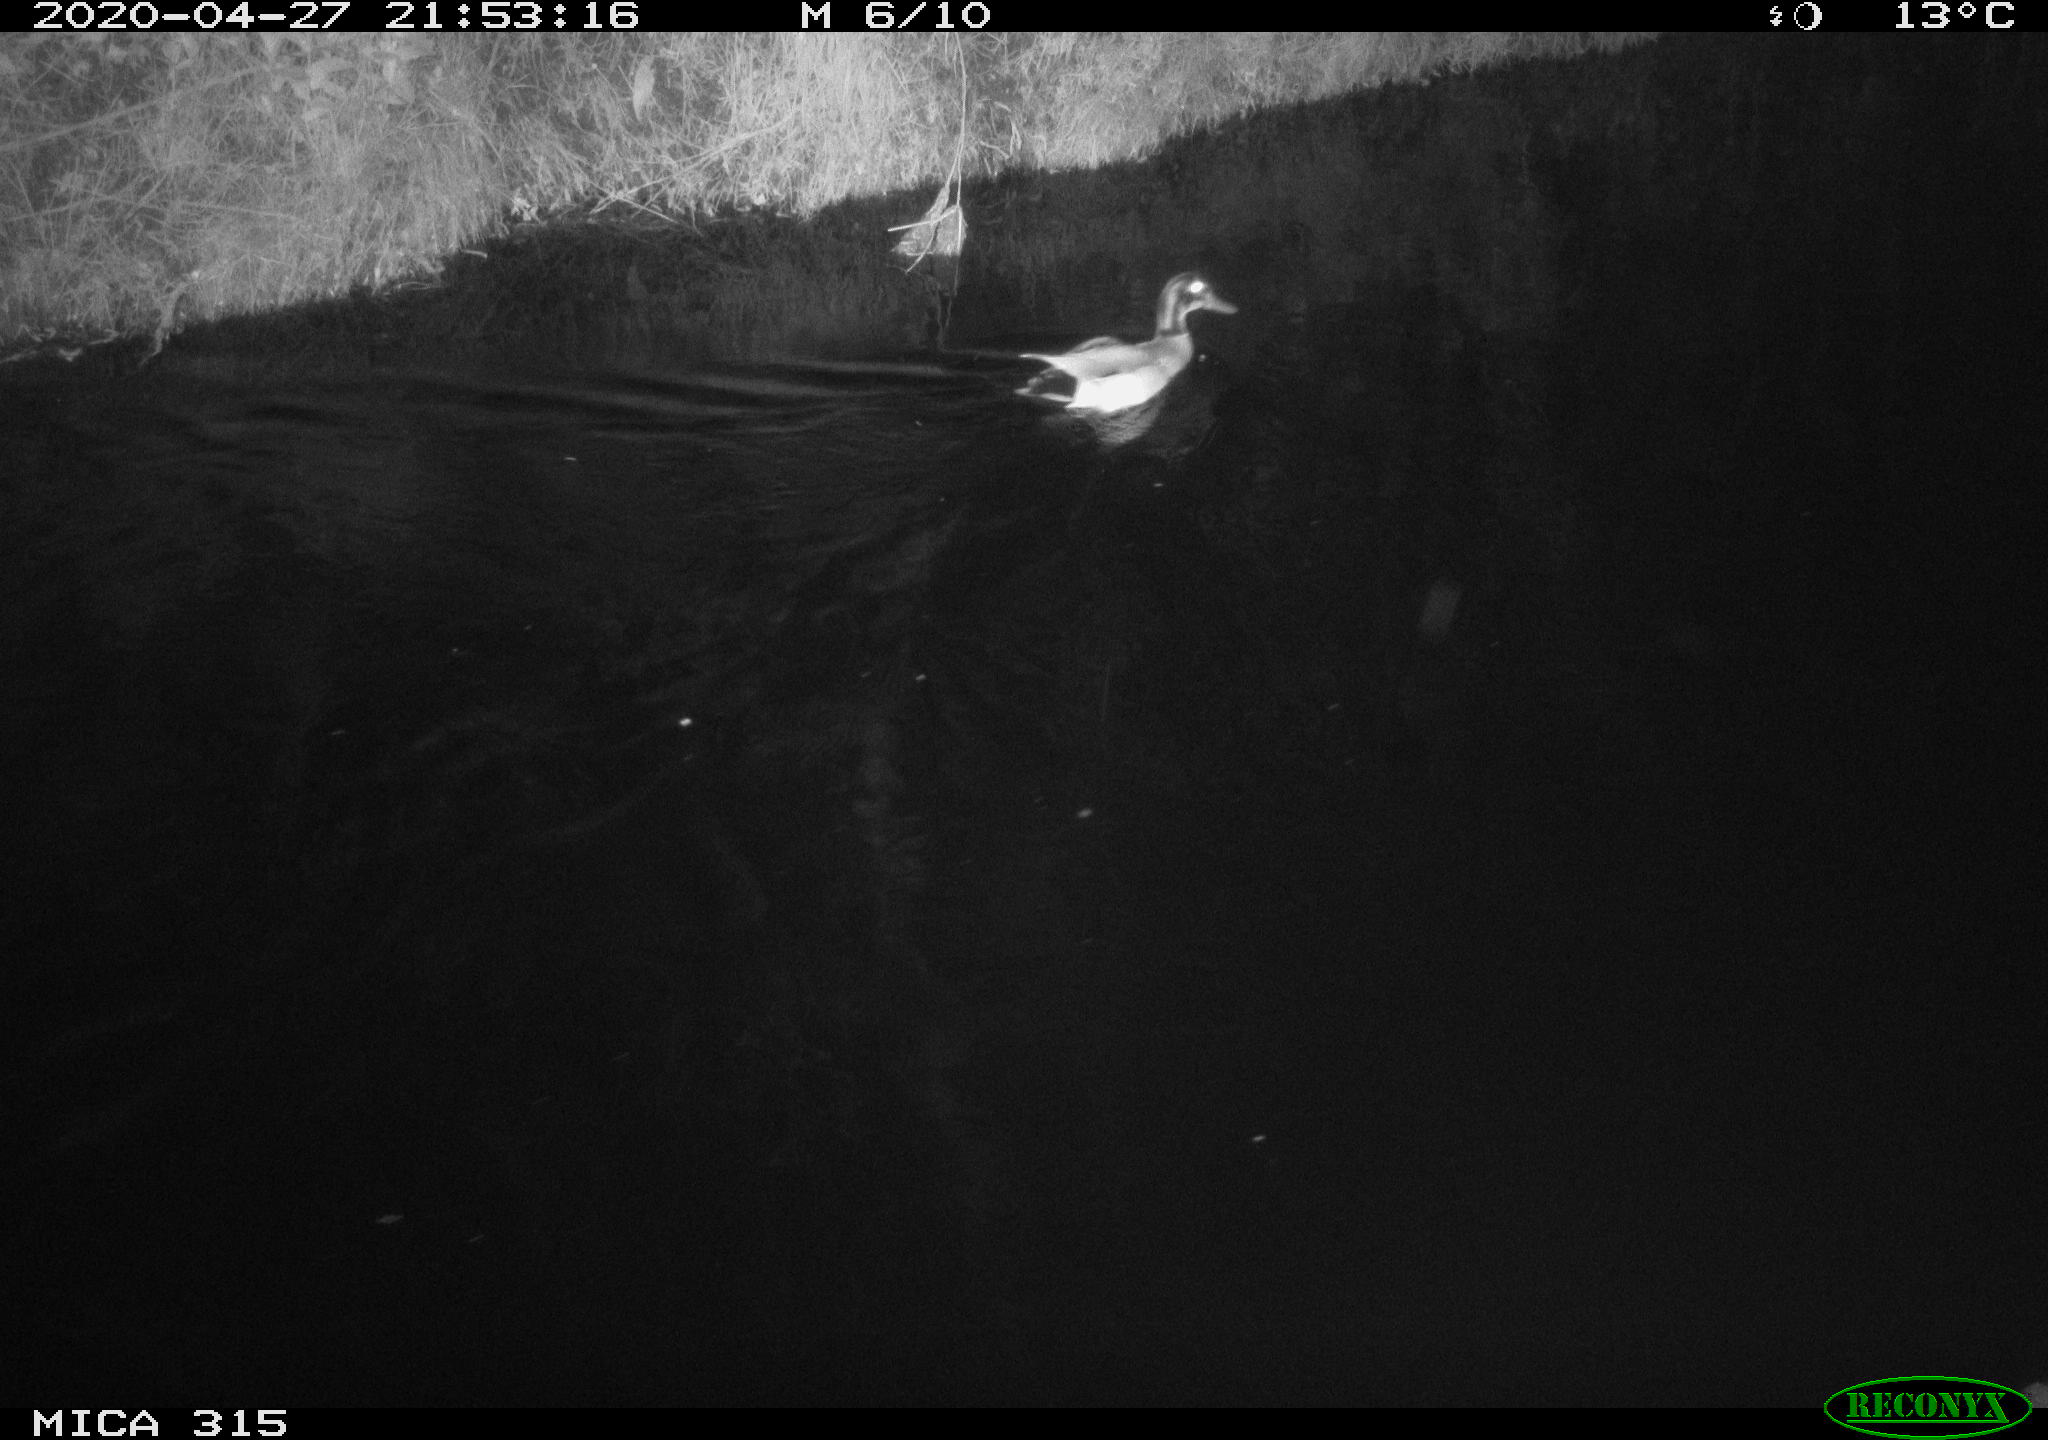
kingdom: Animalia
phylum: Chordata
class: Aves
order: Anseriformes
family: Anatidae
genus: Anas
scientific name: Anas platyrhynchos
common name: Mallard
